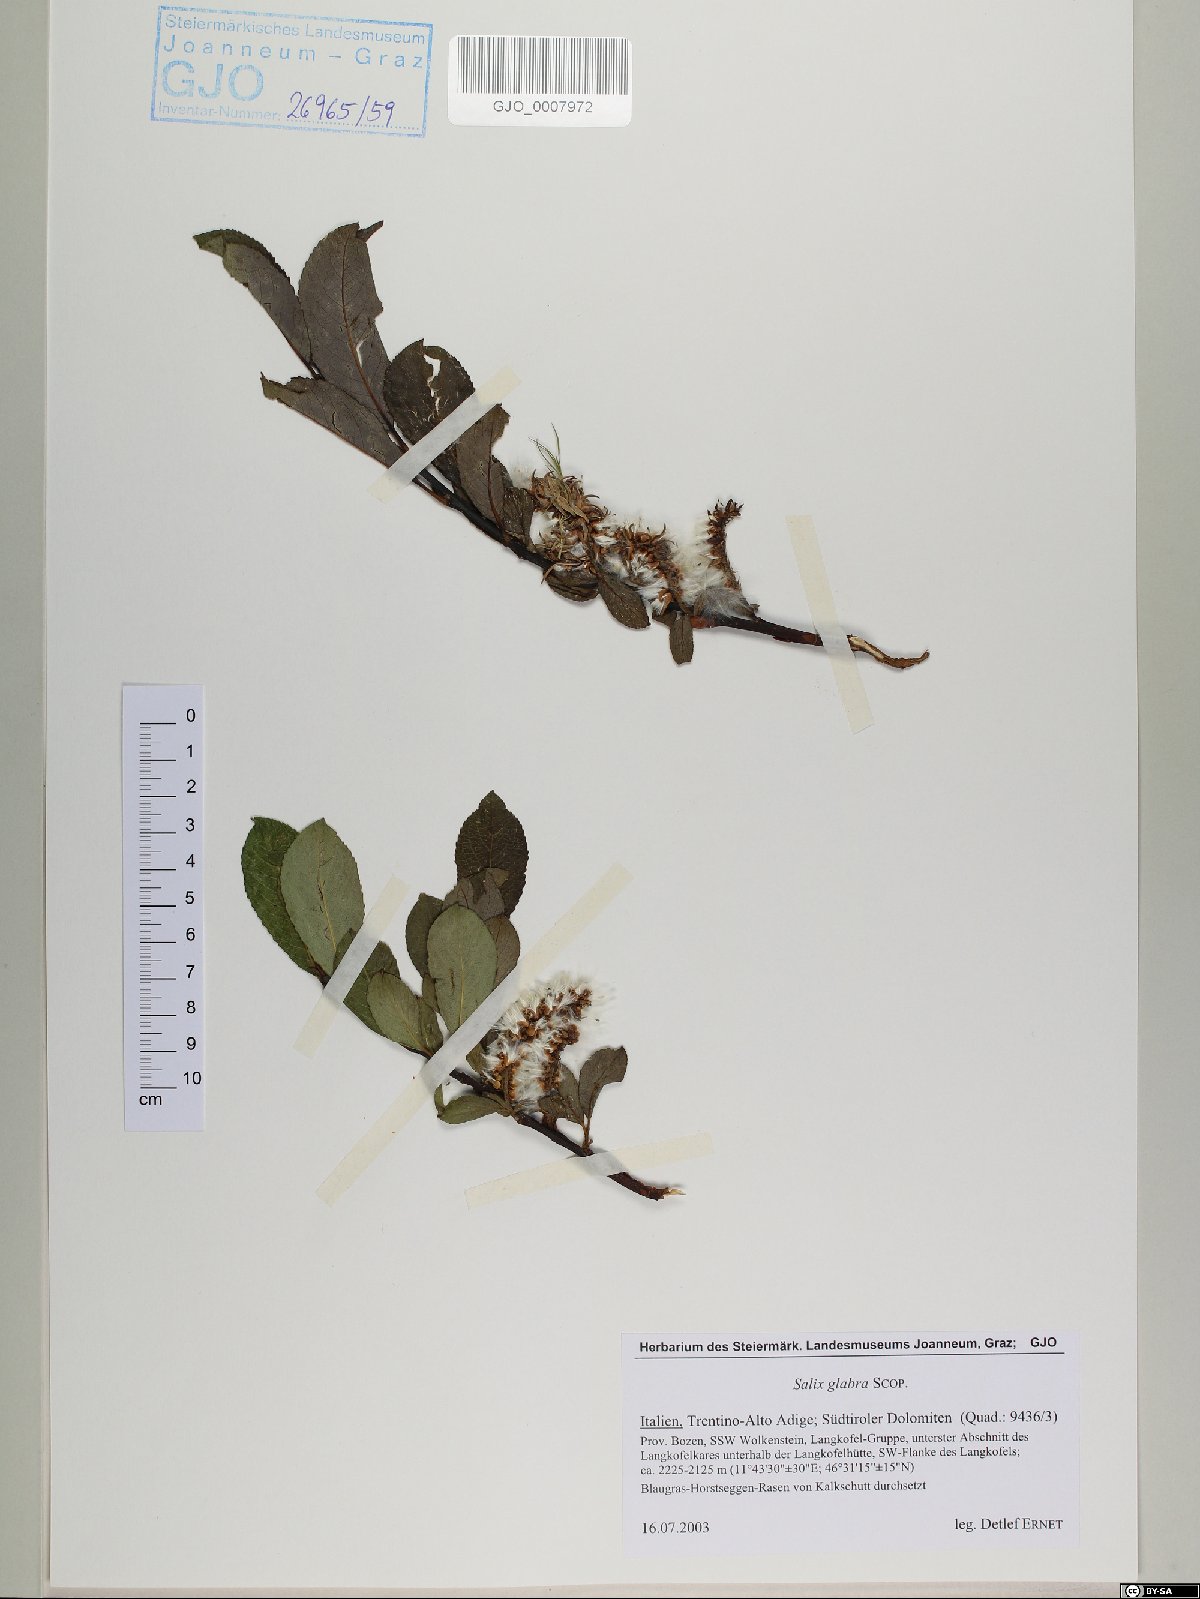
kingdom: Plantae
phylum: Tracheophyta
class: Magnoliopsida
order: Malpighiales
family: Salicaceae
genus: Salix
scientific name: Salix glabra
